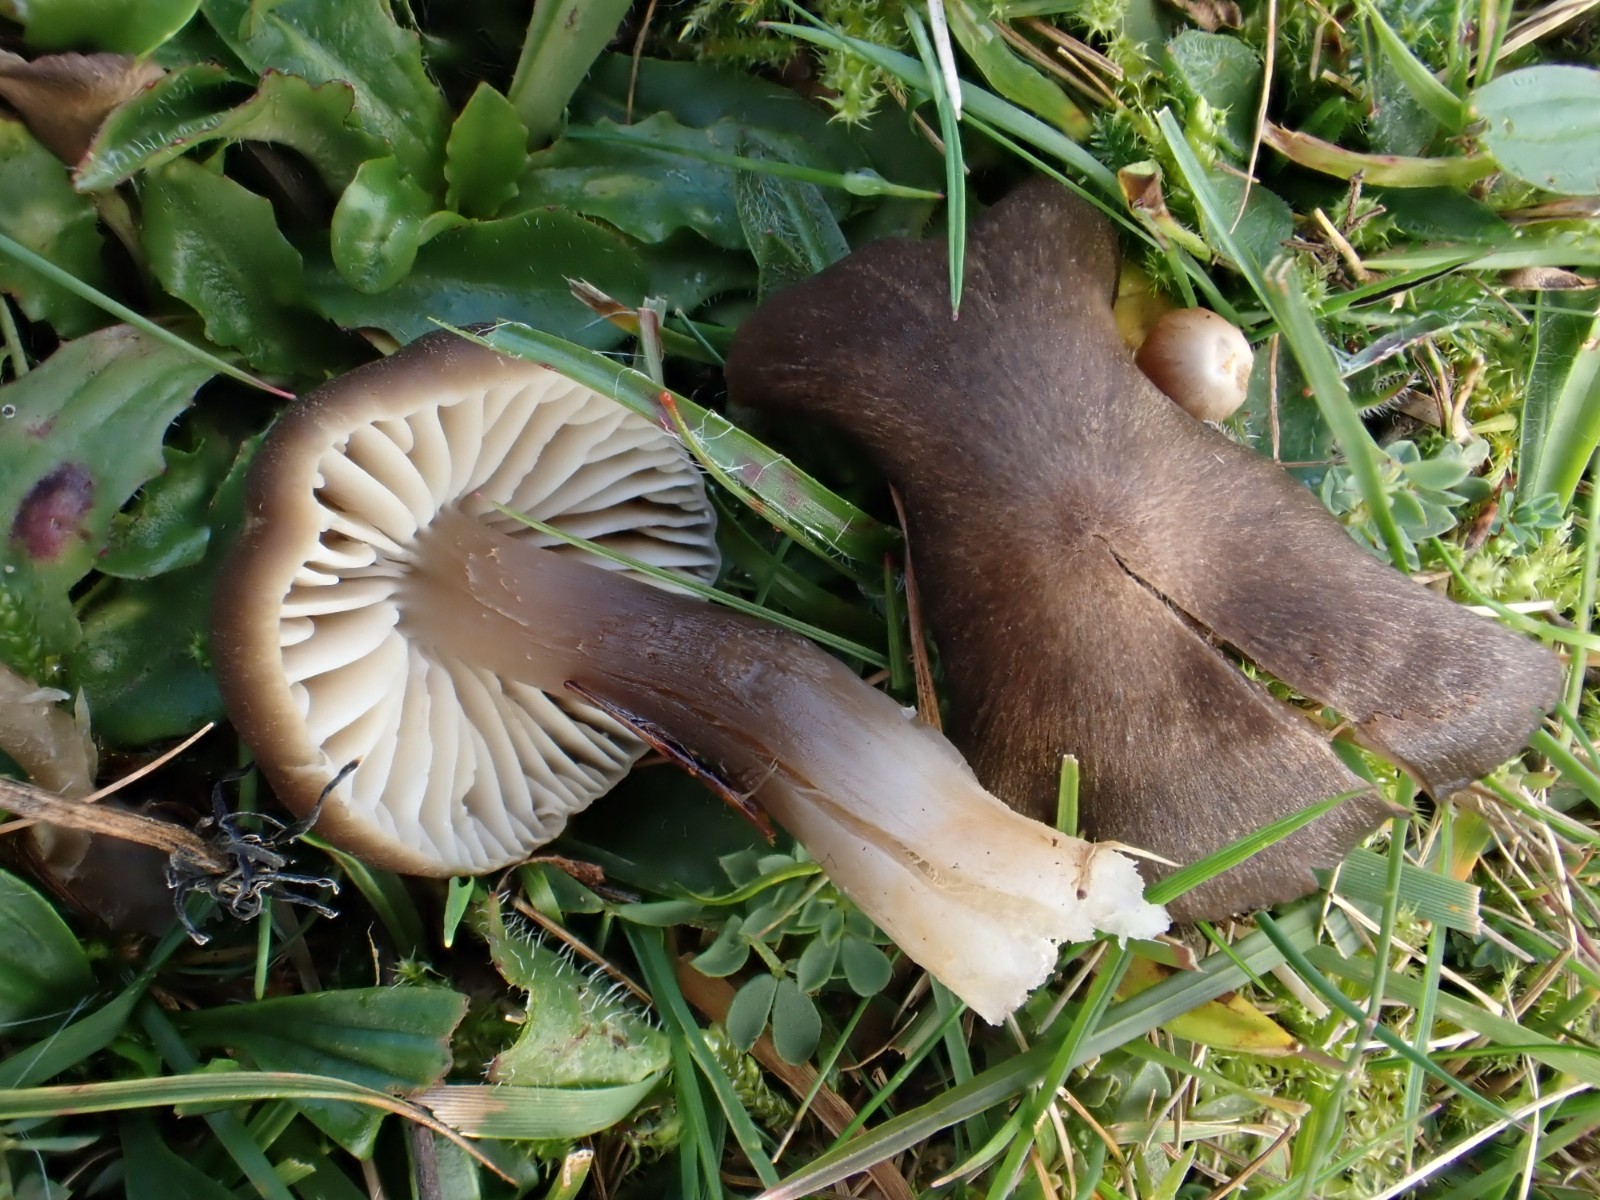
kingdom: Fungi
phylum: Basidiomycota
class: Agaricomycetes
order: Agaricales
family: Hygrophoraceae
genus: Neohygrocybe
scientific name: Neohygrocybe nitrata
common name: stinkende vokshat
